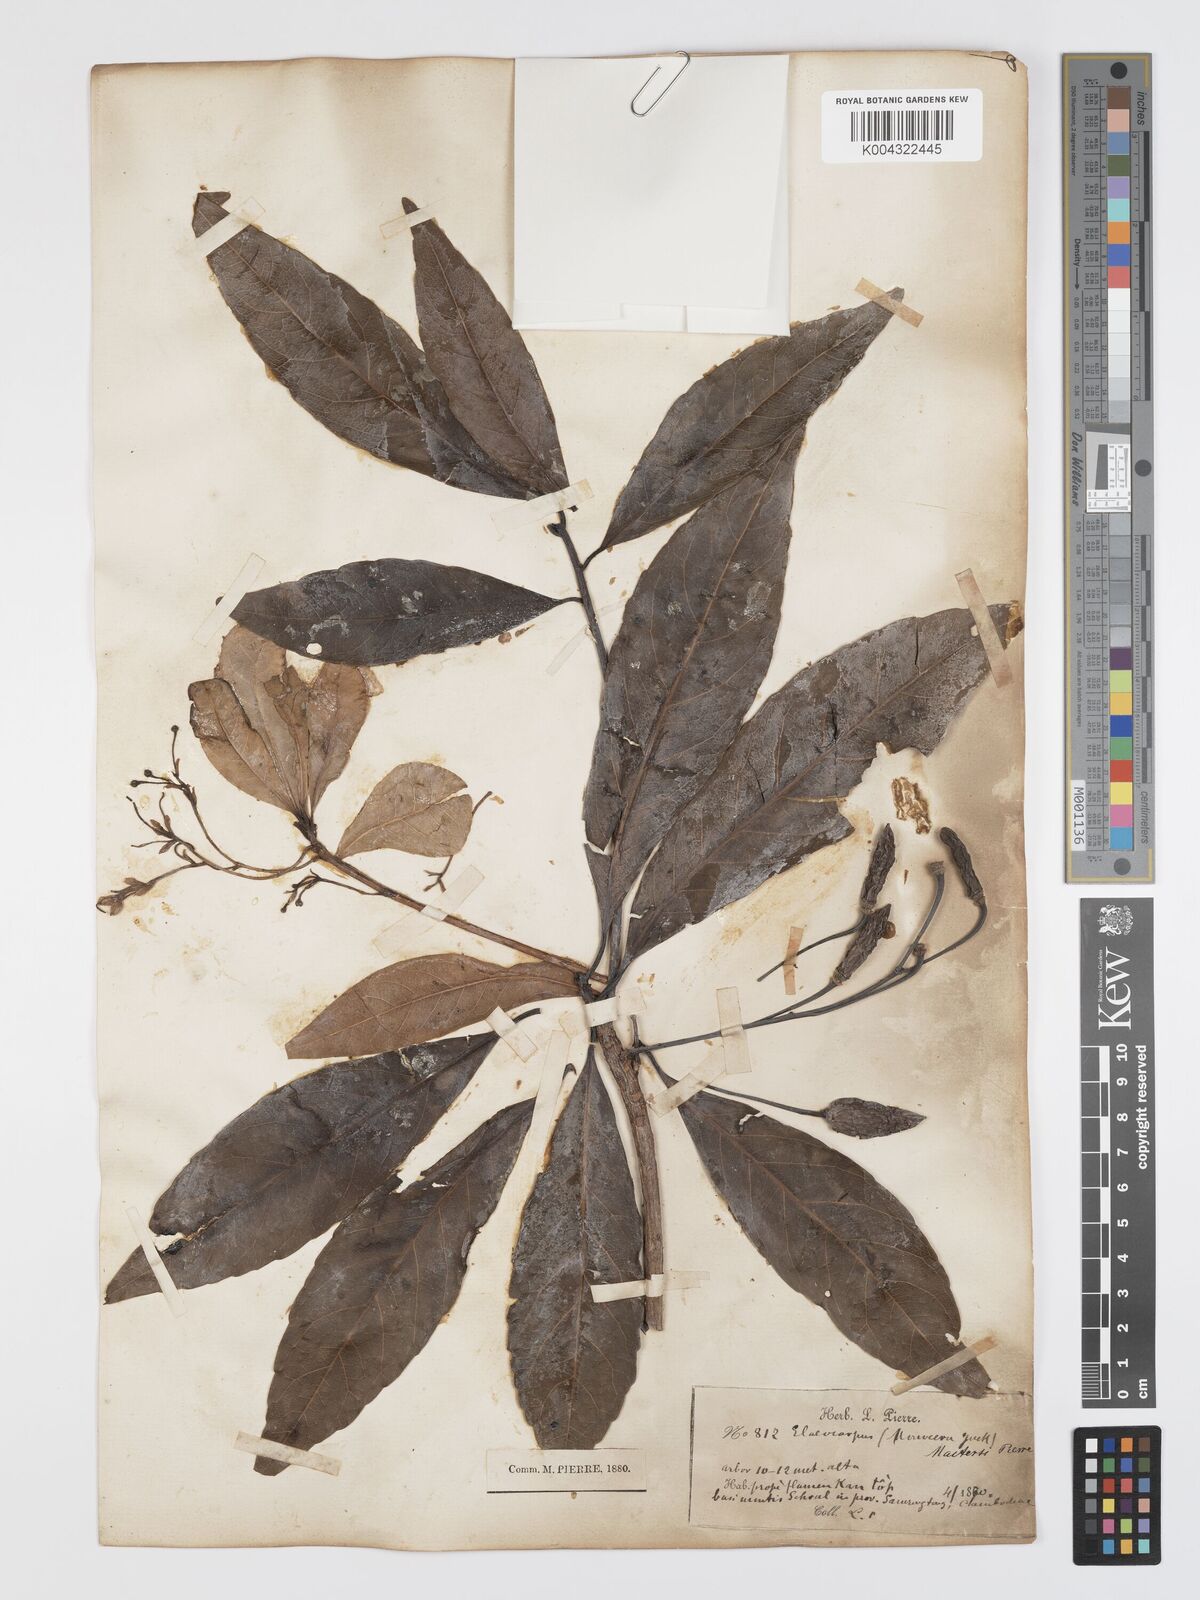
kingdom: Plantae
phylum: Tracheophyta
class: Magnoliopsida
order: Oxalidales
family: Elaeocarpaceae
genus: Elaeocarpus
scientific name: Elaeocarpus rivularis
